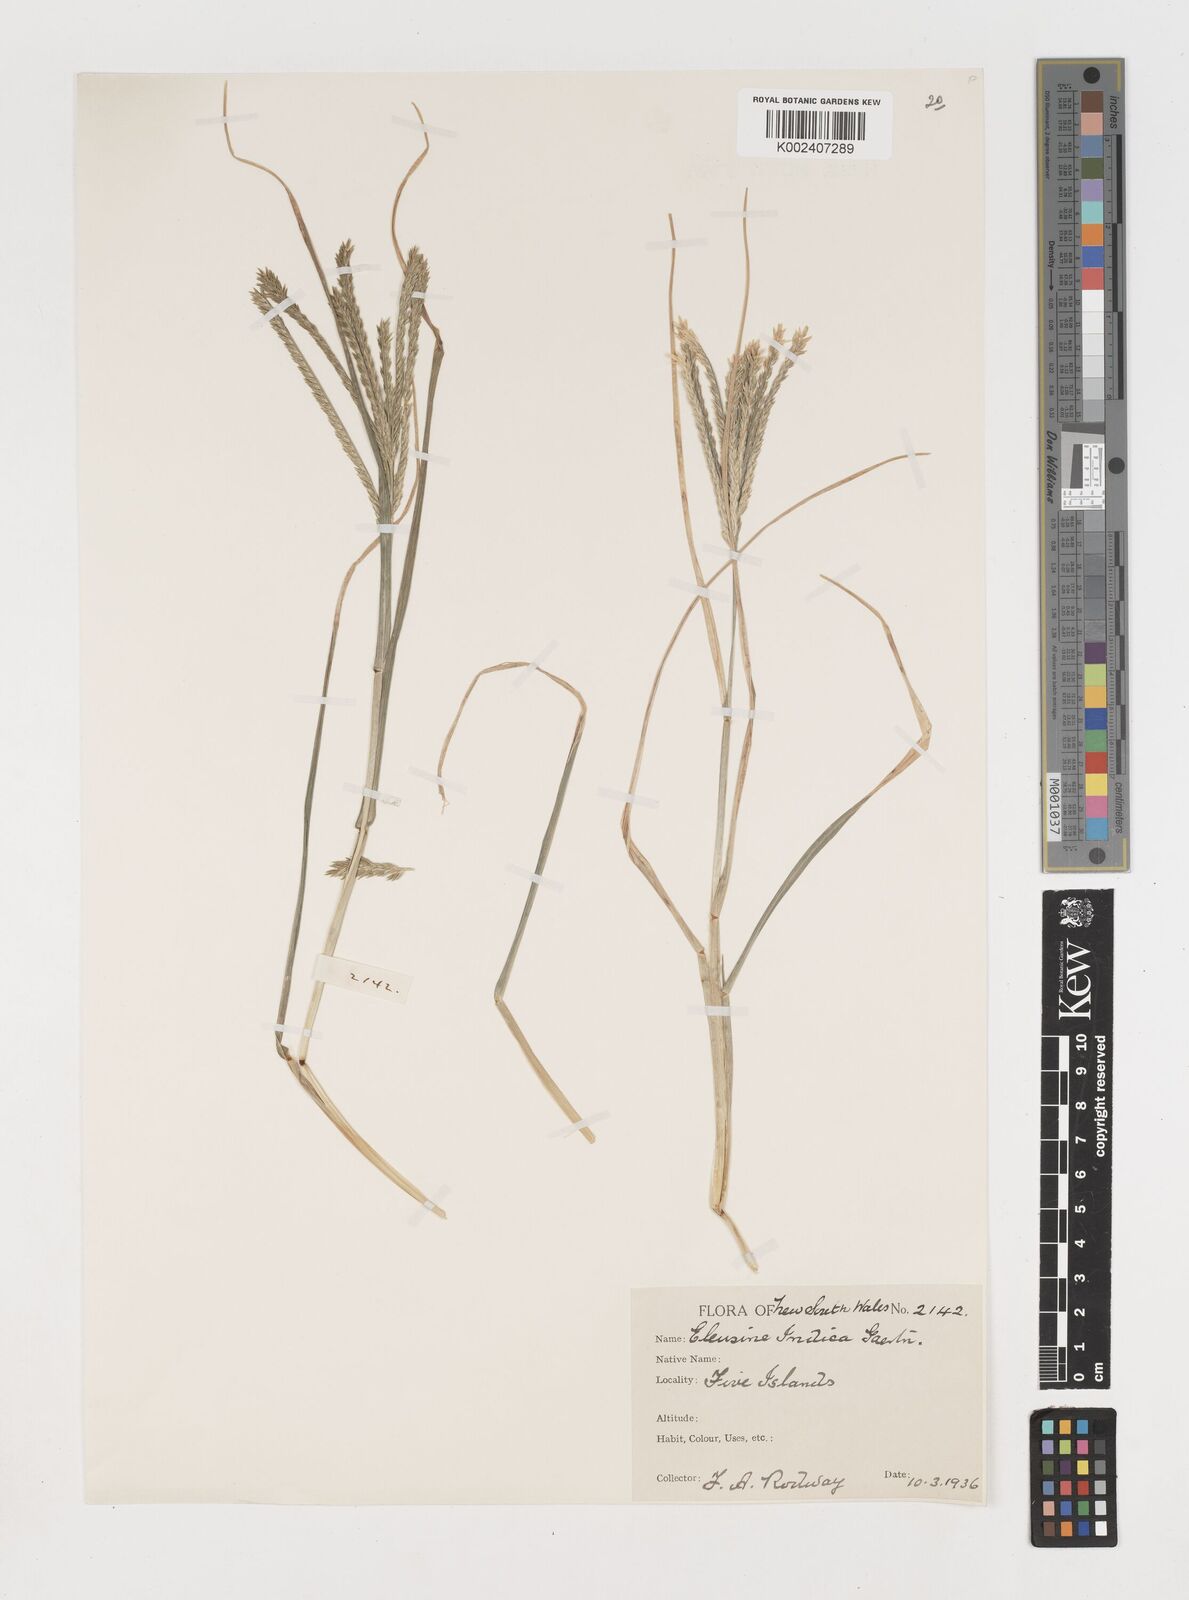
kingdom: Plantae
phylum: Tracheophyta
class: Liliopsida
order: Poales
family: Poaceae
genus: Eleusine
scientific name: Eleusine africana
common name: Wild african finger millet
